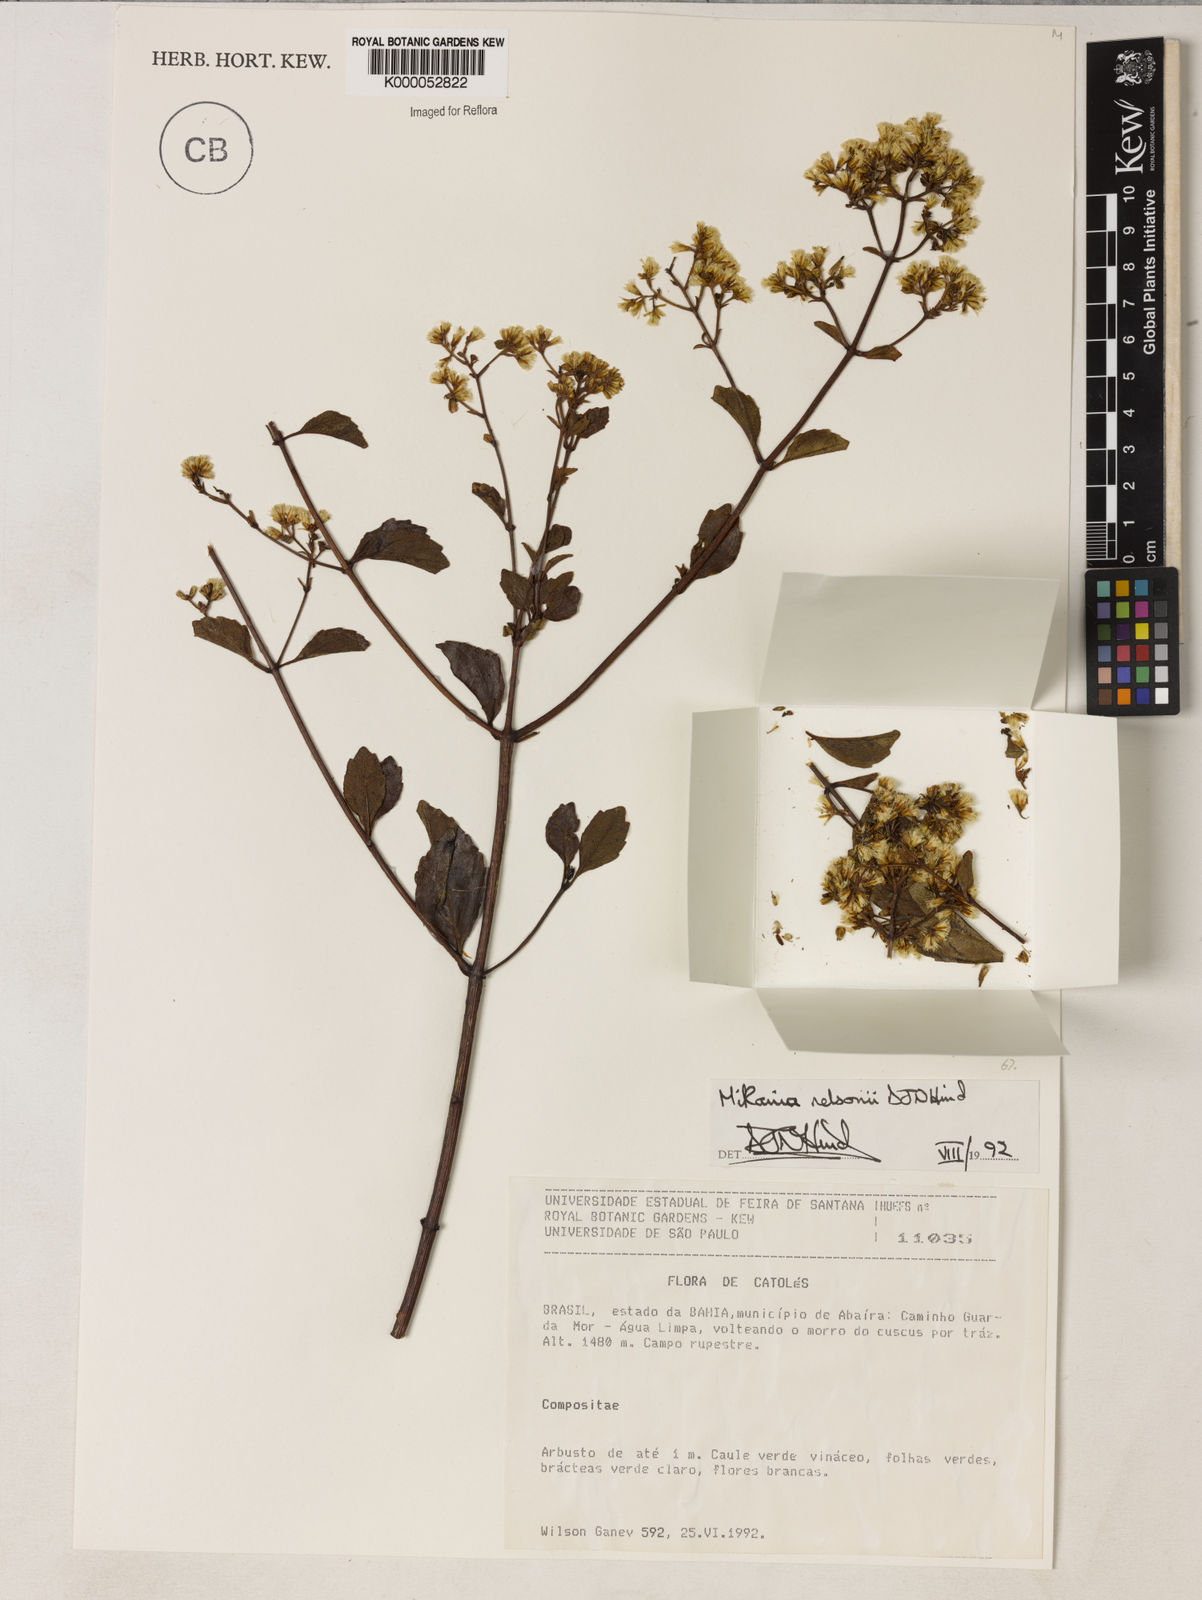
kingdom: Plantae
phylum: Tracheophyta
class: Magnoliopsida
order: Asterales
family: Asteraceae
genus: Mikania
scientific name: Mikania nelsonii
